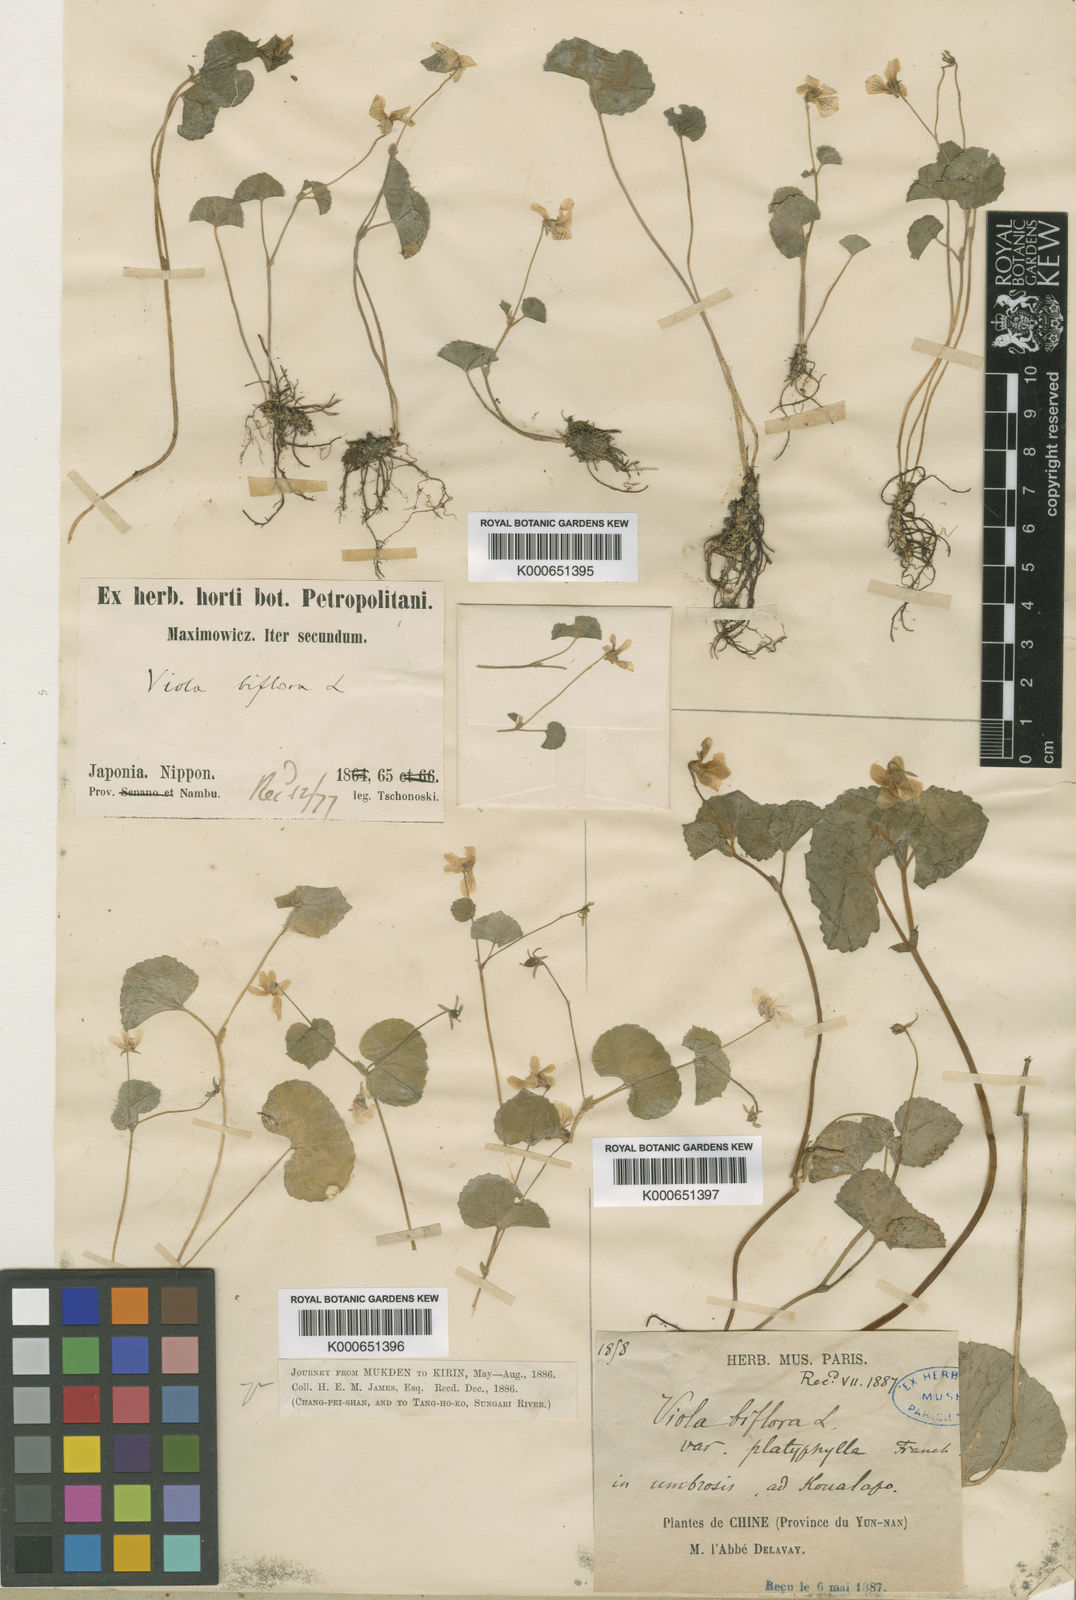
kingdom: Plantae
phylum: Tracheophyta
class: Magnoliopsida
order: Malpighiales
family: Violaceae
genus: Viola
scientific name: Viola biflora
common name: Alpine yellow violet
